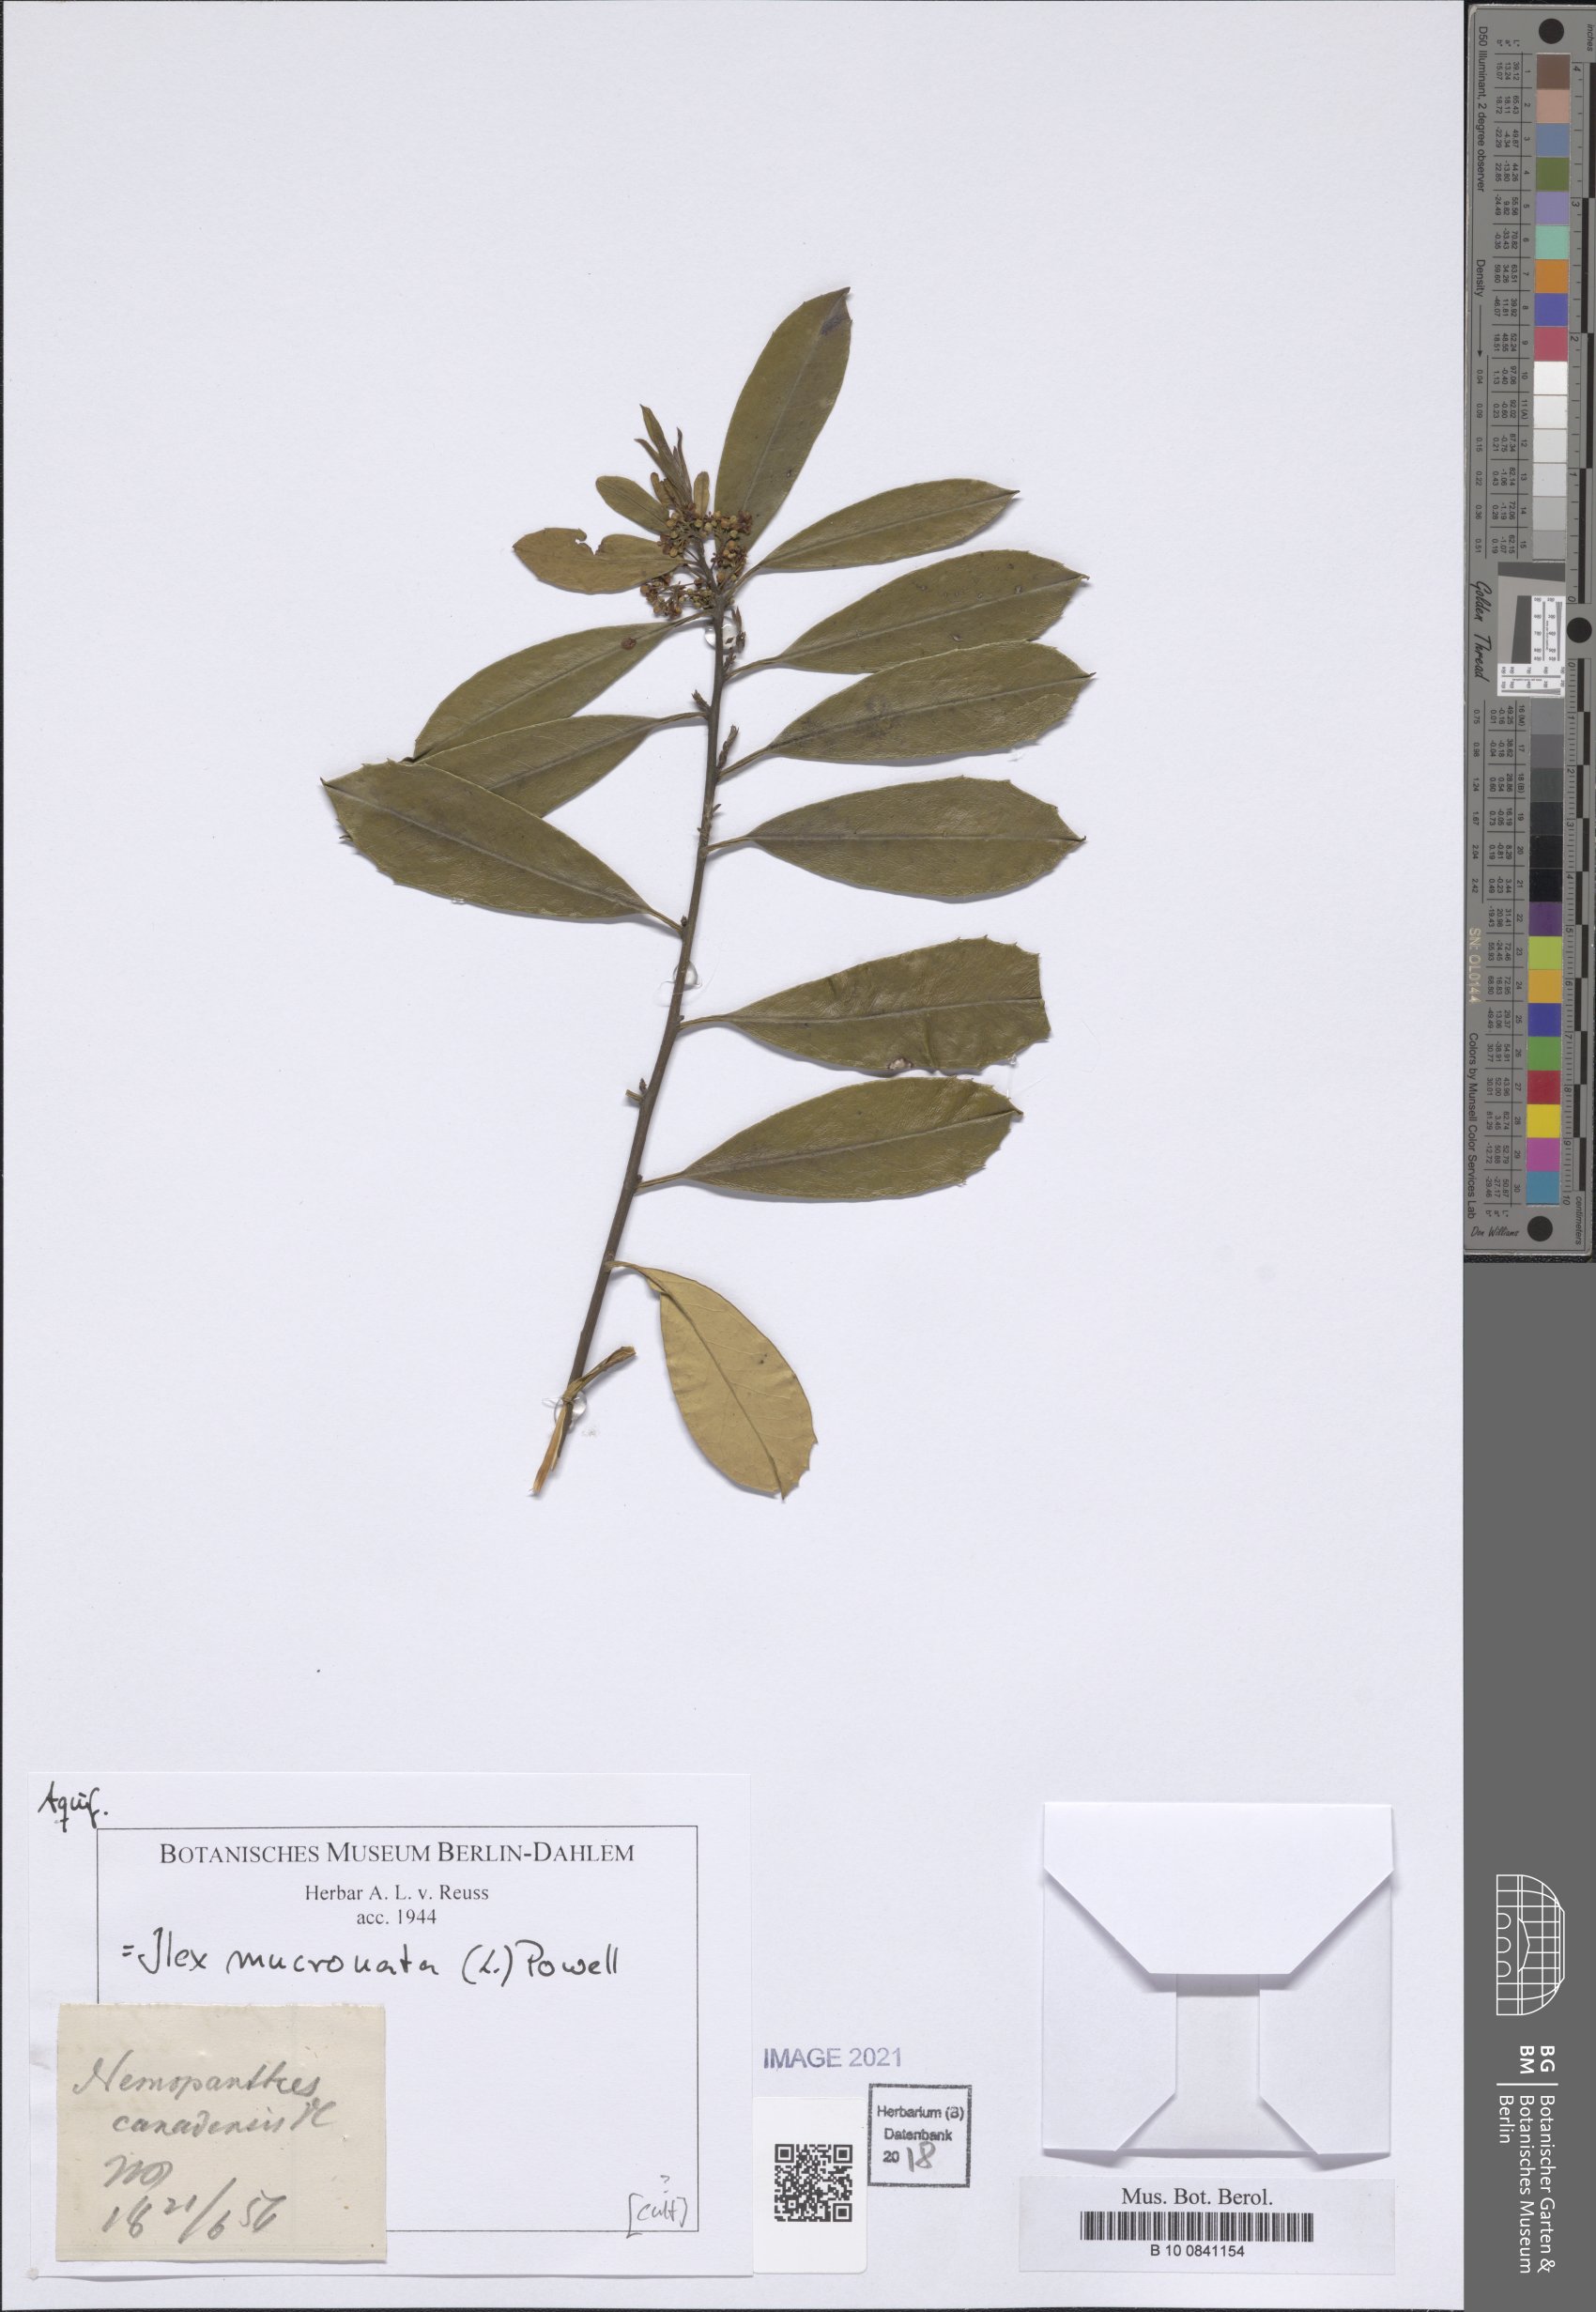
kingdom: Plantae
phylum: Tracheophyta
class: Magnoliopsida
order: Aquifoliales
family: Aquifoliaceae
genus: Ilex
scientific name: Ilex mucronata
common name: Catberry
